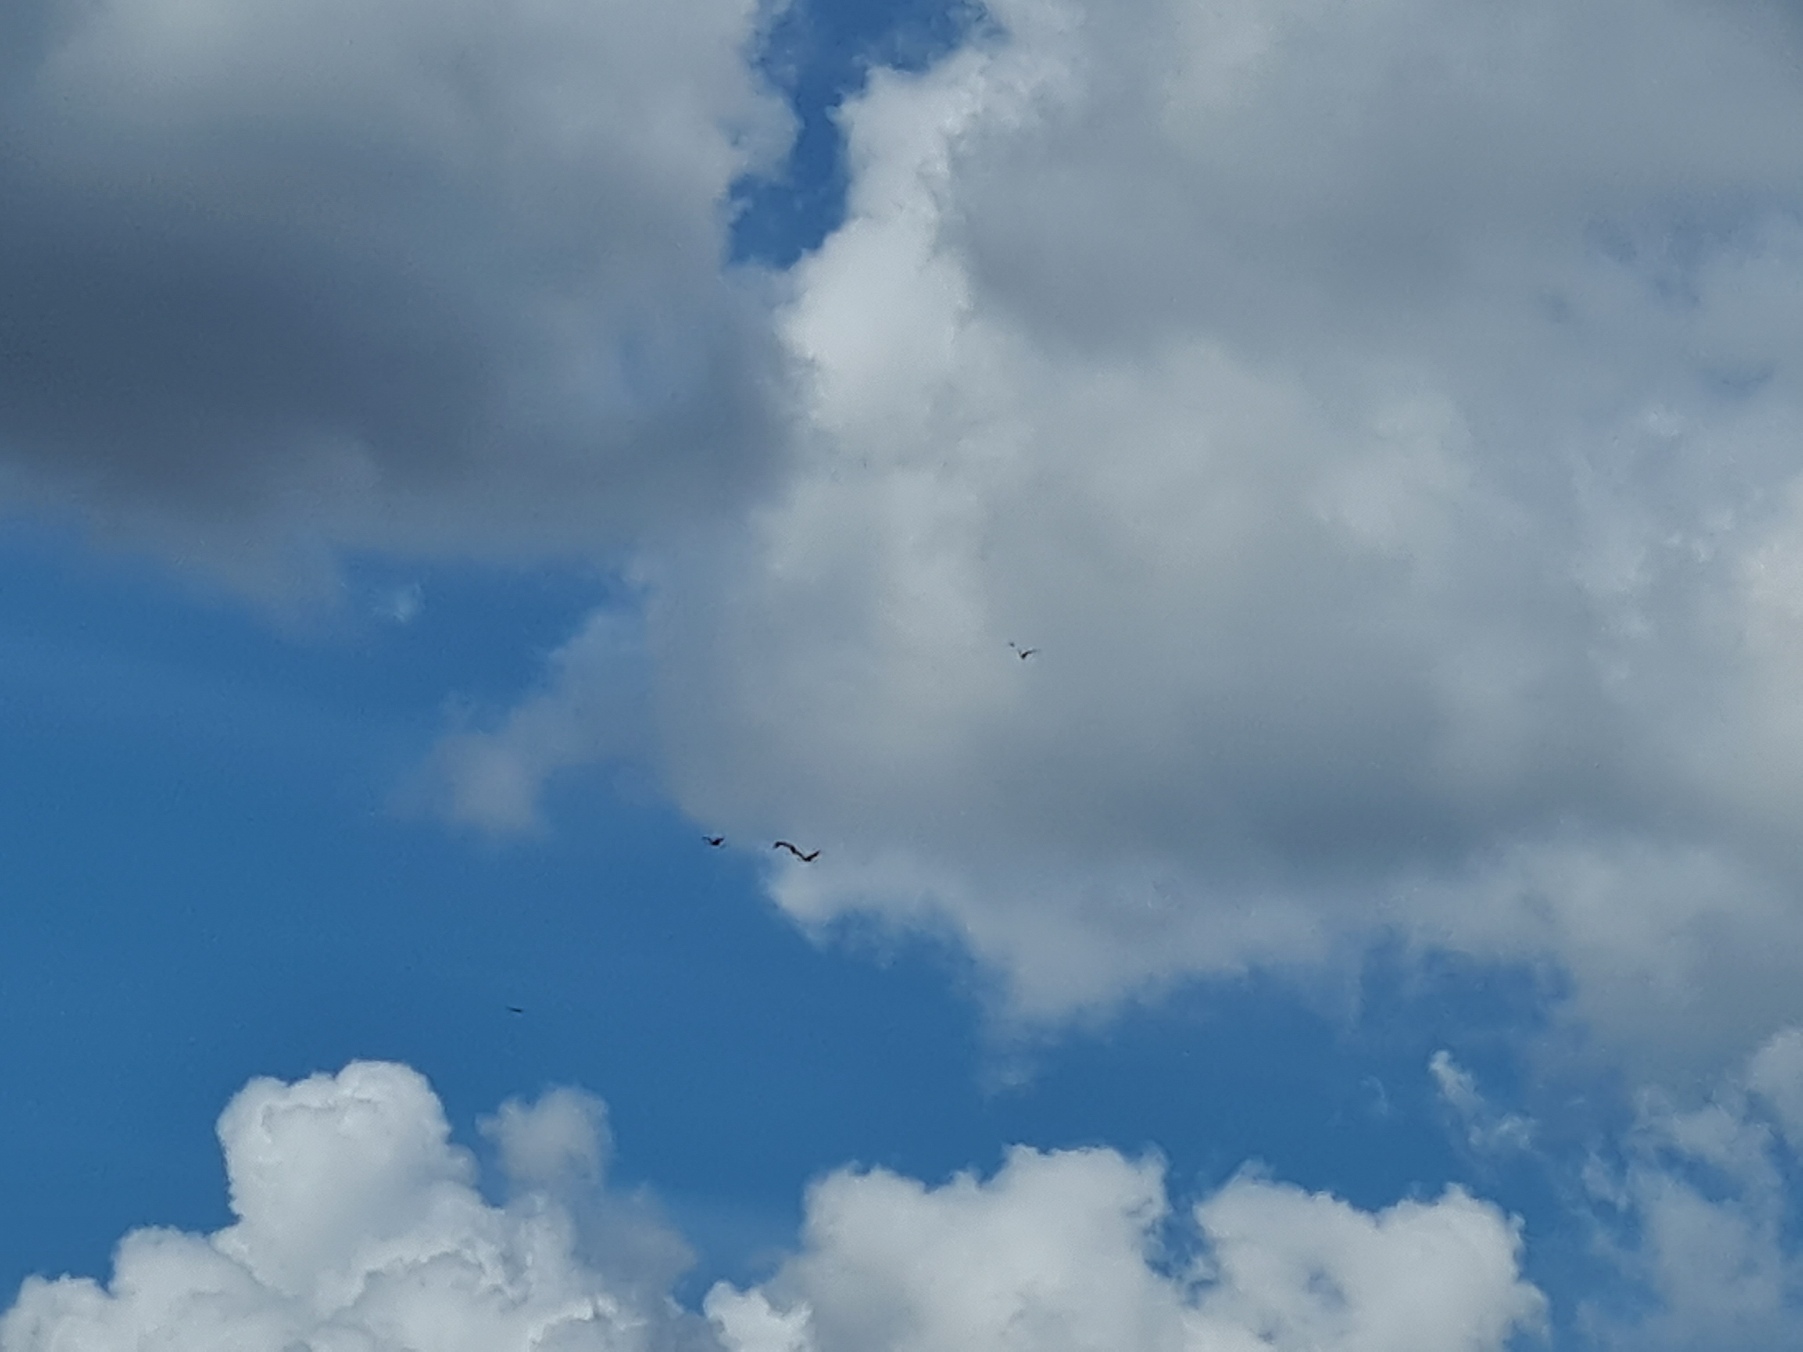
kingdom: Animalia
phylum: Chordata
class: Aves
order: Gruiformes
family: Gruidae
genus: Grus
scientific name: Grus grus
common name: Trane
